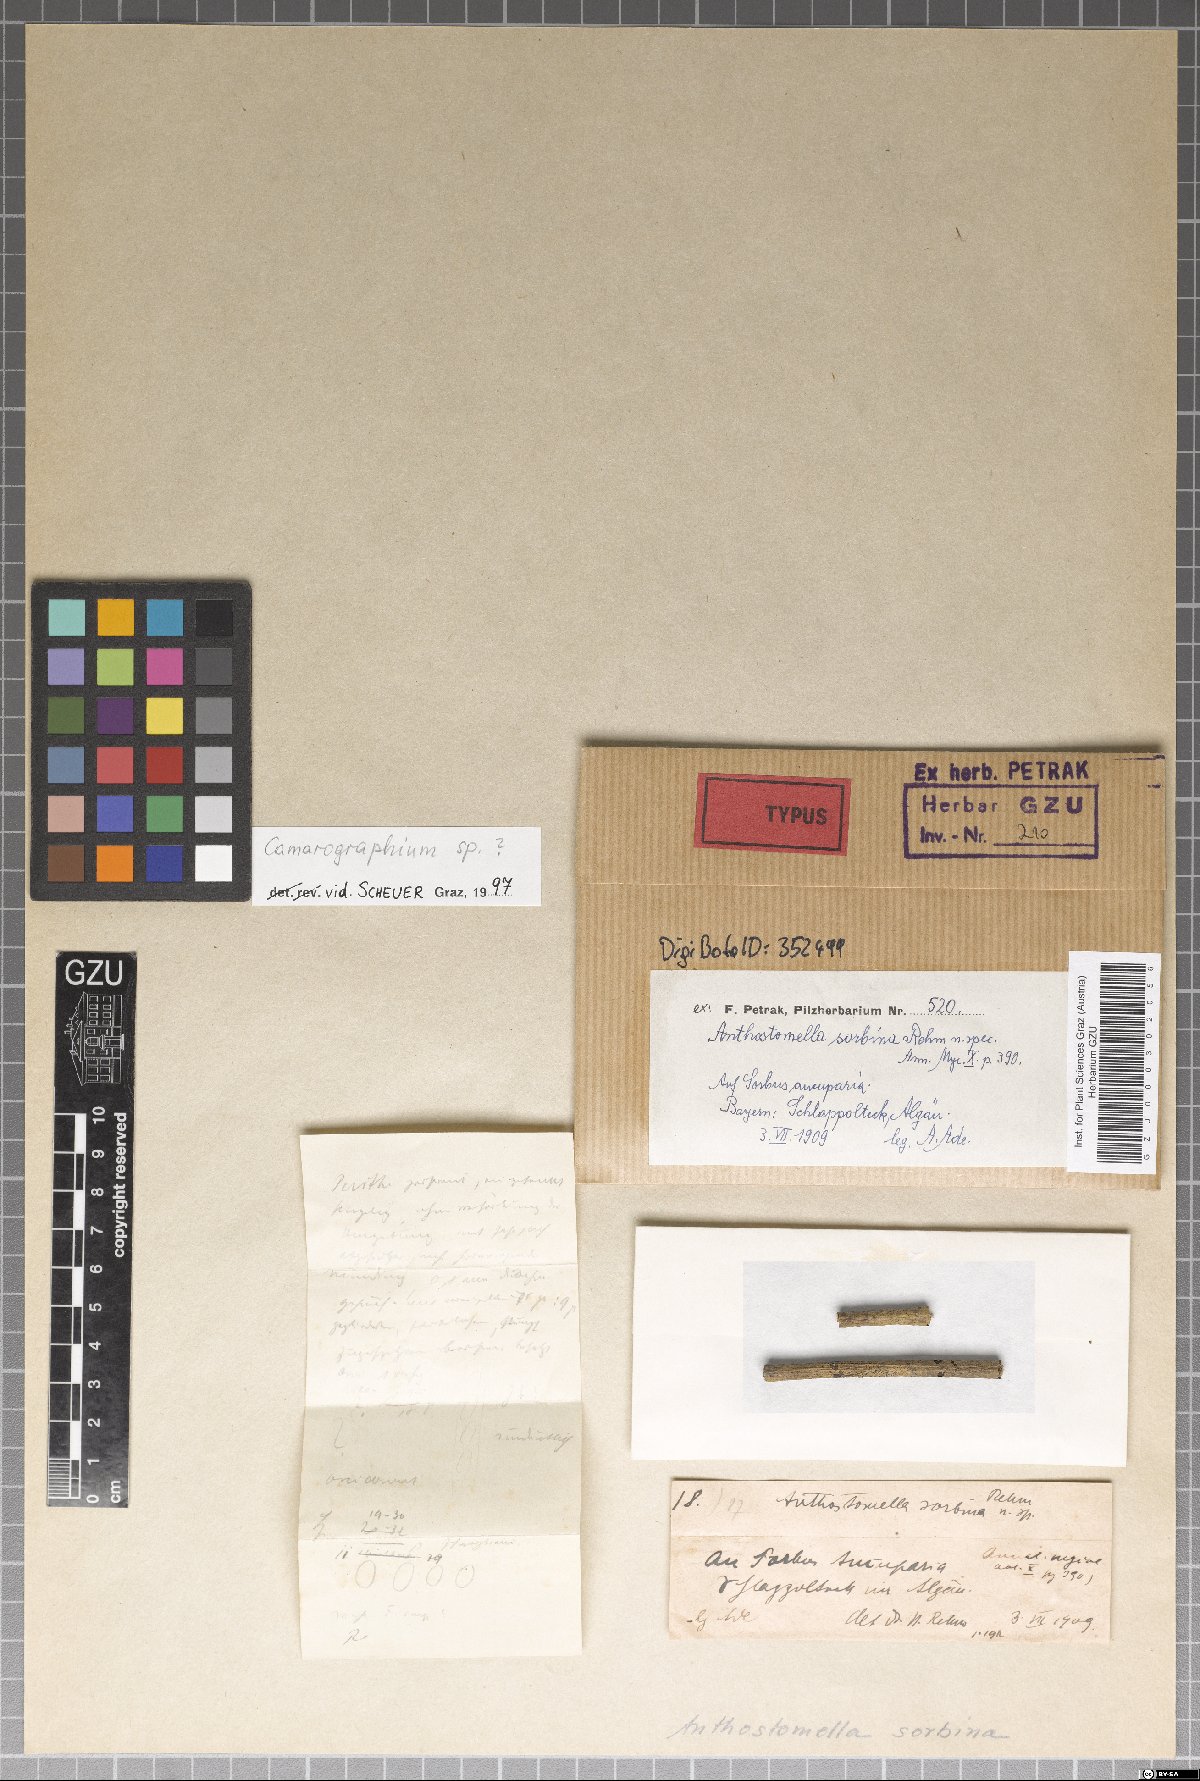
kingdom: Fungi
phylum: Ascomycota
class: Sordariomycetes
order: Xylariales
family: Xylariaceae
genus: Anthostomella
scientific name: Anthostomella
